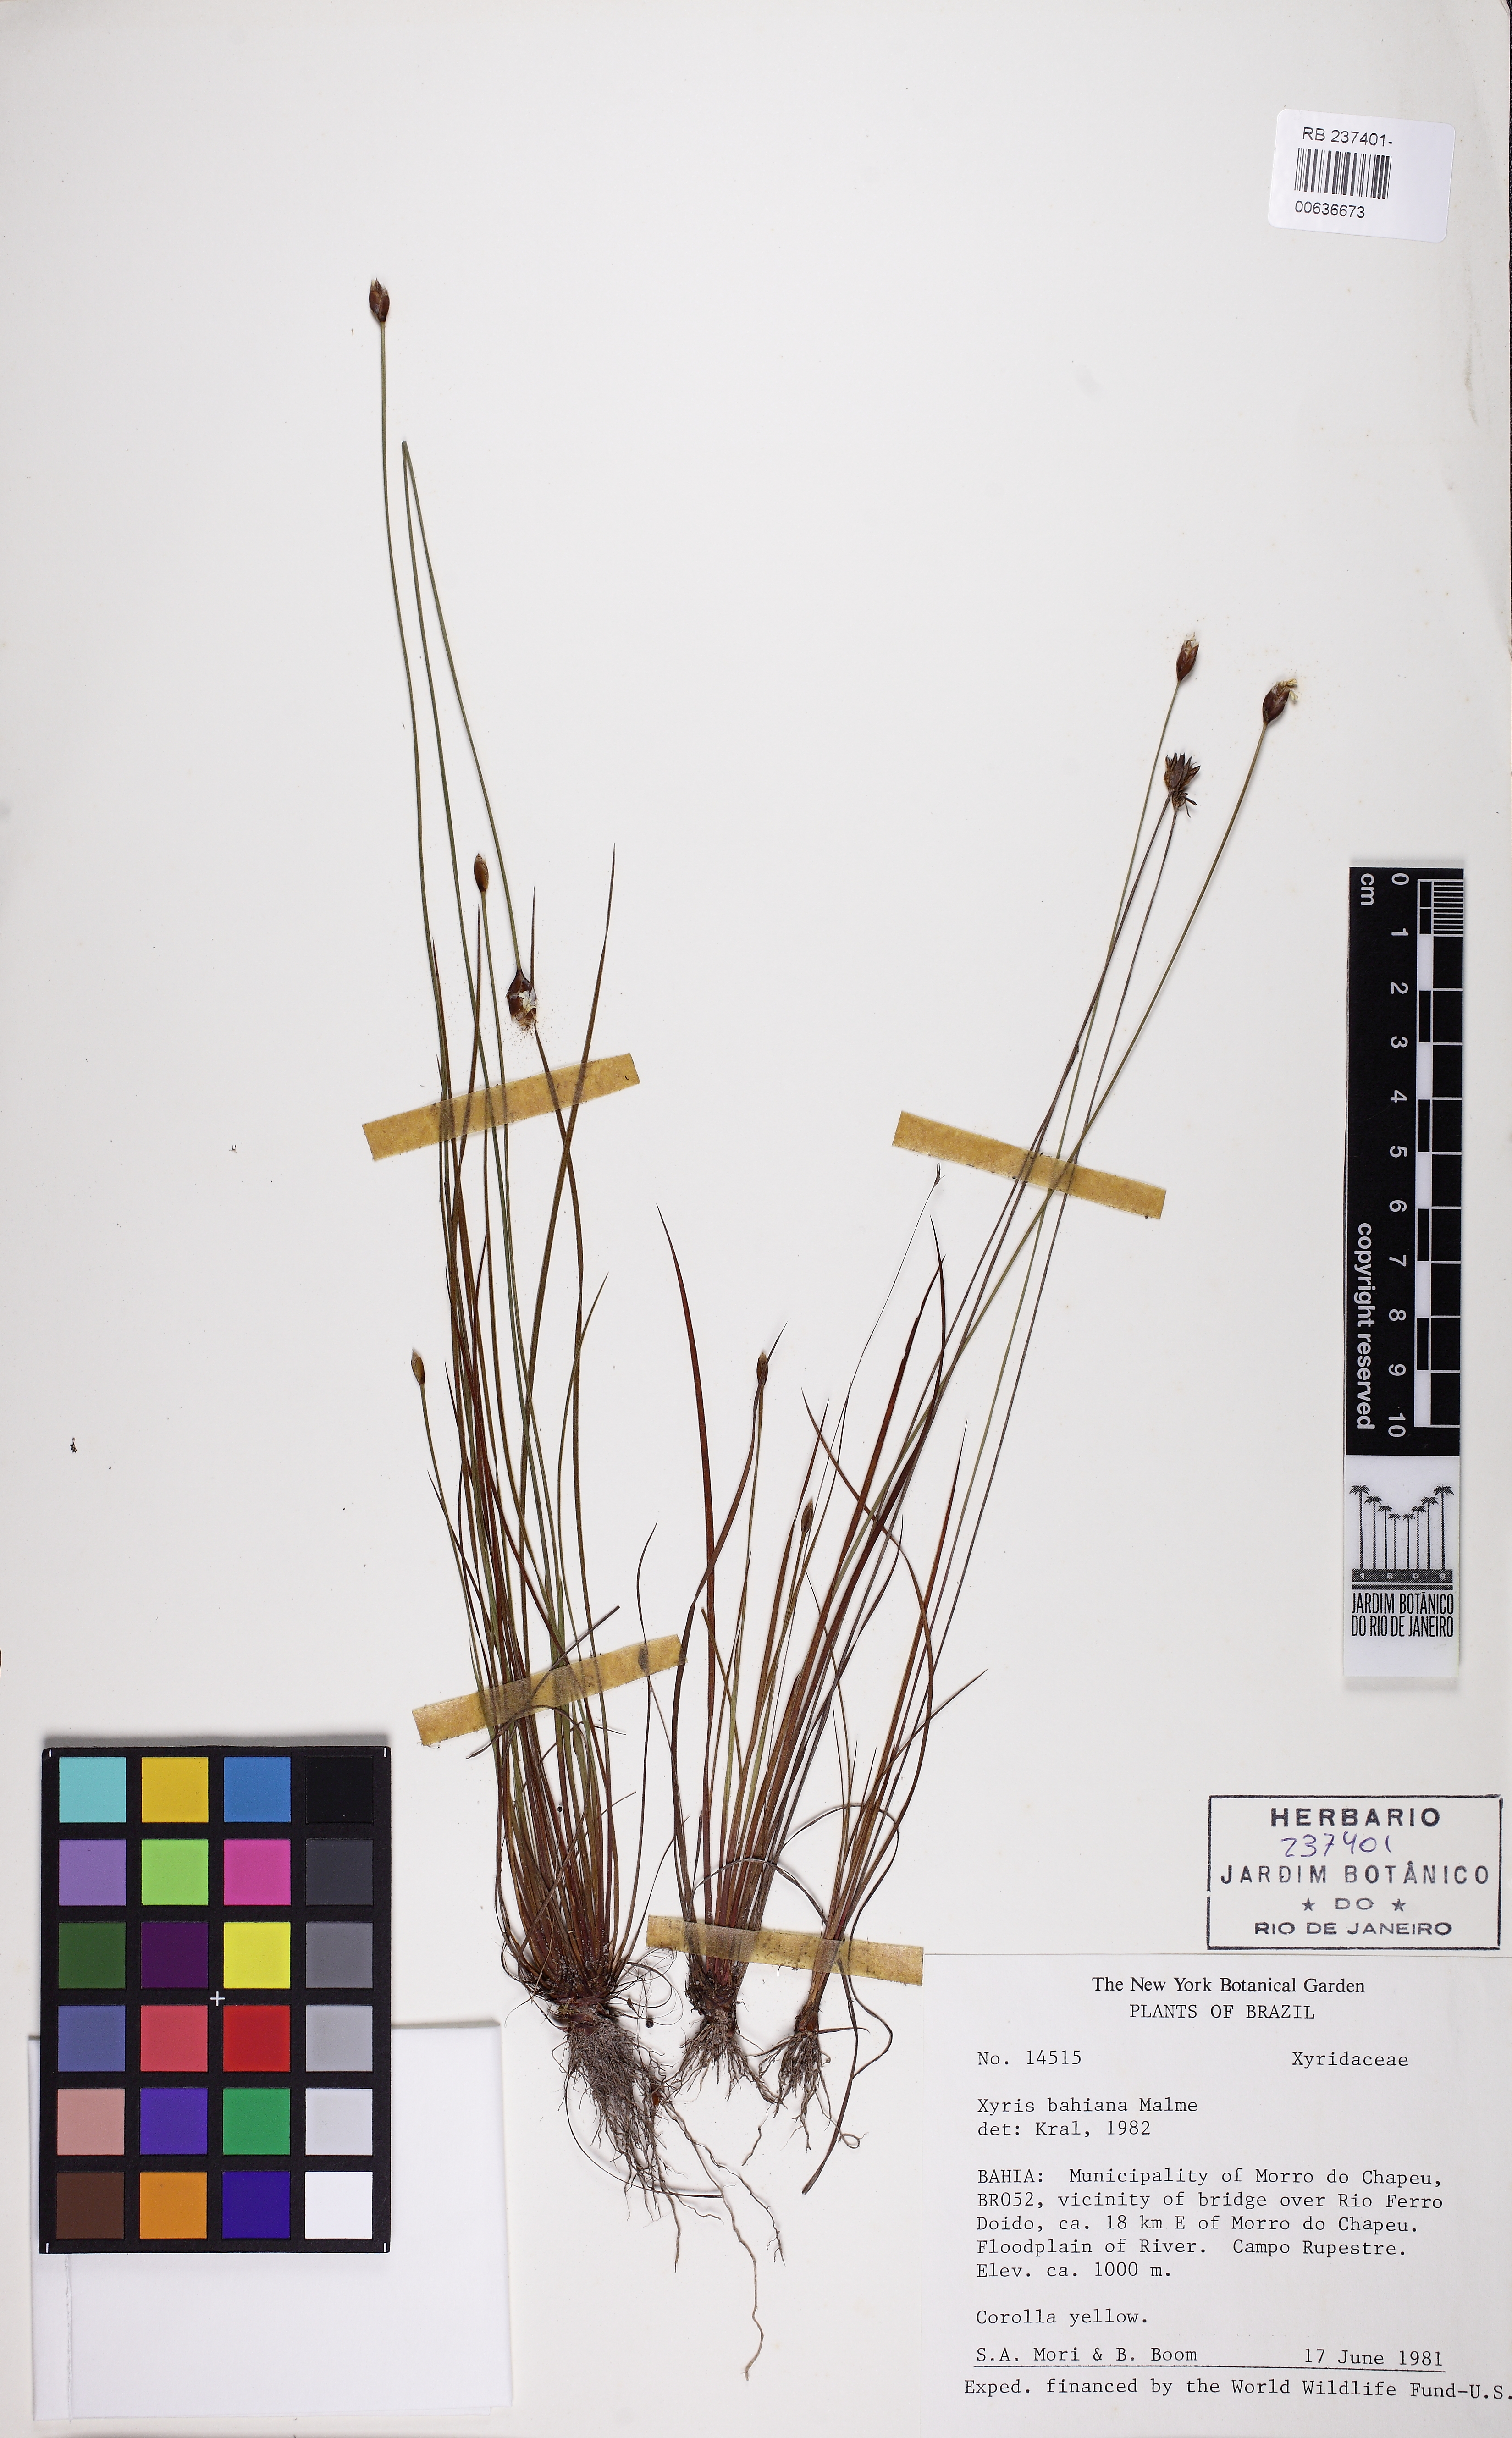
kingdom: Plantae
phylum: Tracheophyta
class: Liliopsida
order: Poales
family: Xyridaceae
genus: Xyris
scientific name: Xyris bahiana
